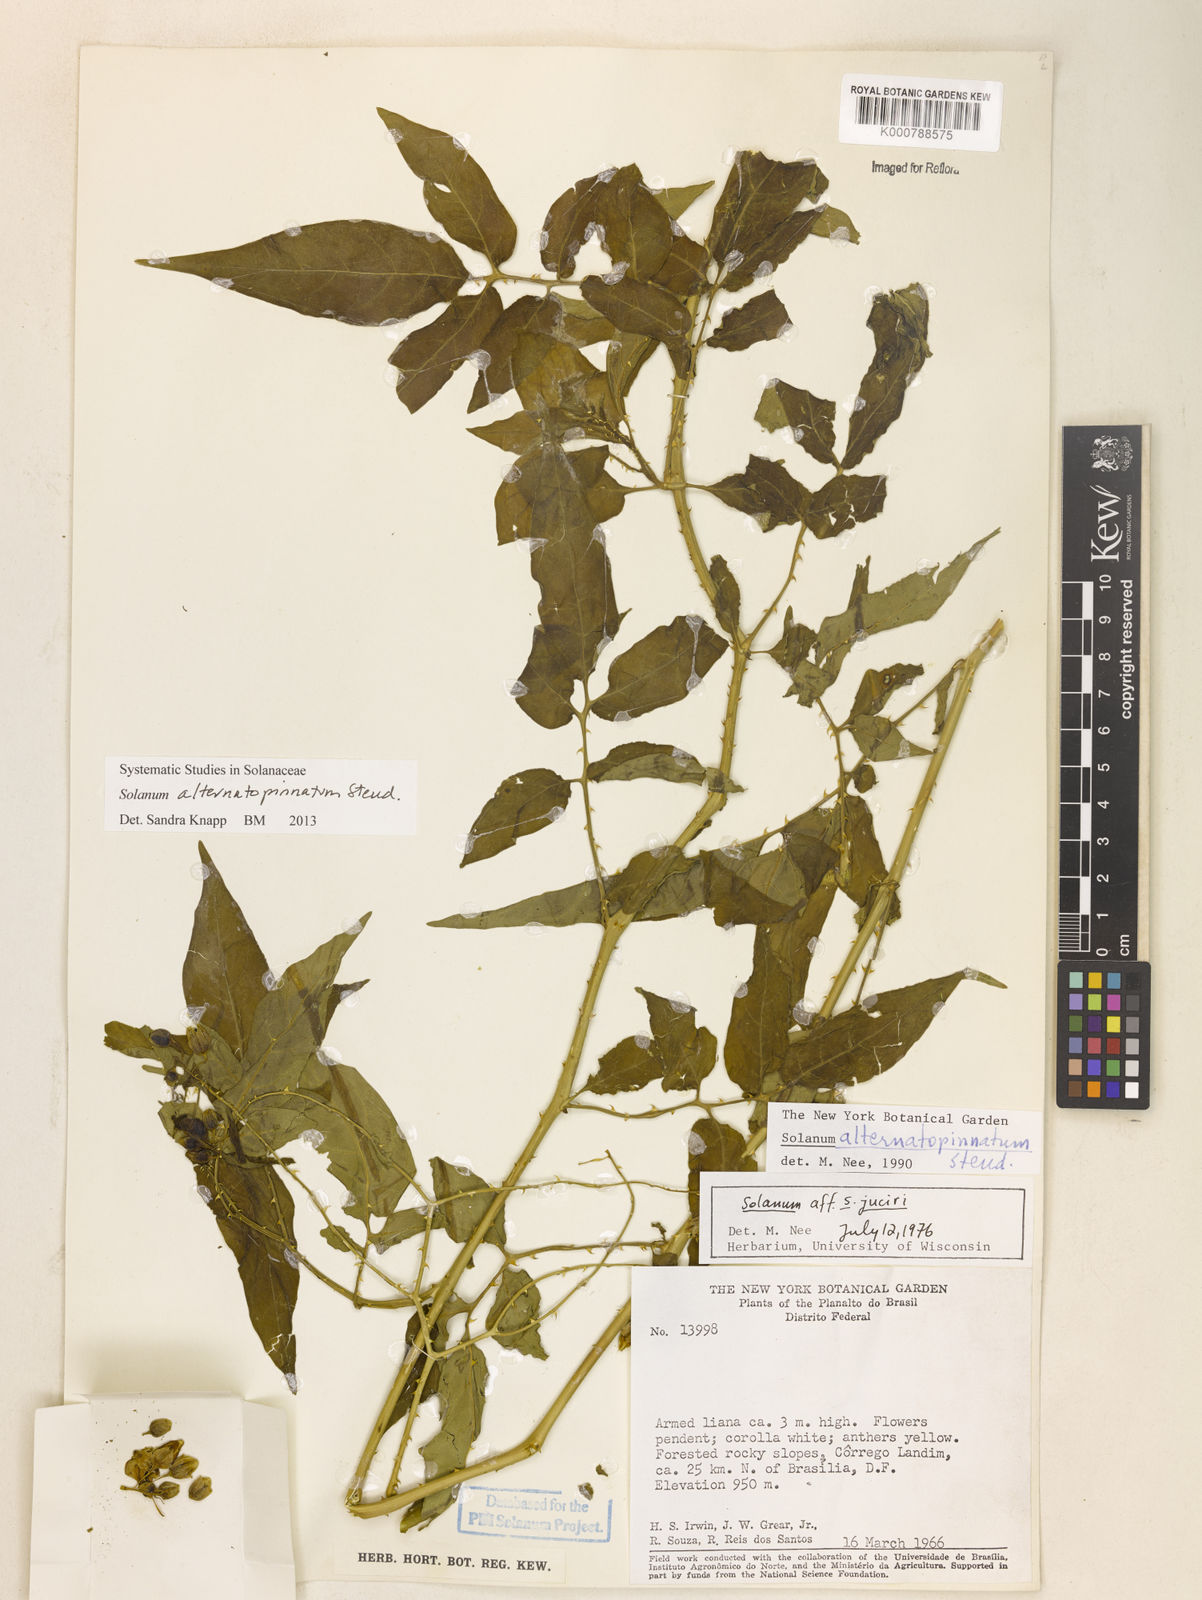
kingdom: Plantae
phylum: Tracheophyta
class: Magnoliopsida
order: Solanales
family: Solanaceae
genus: Solanum
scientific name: Solanum alternatopinnatum
